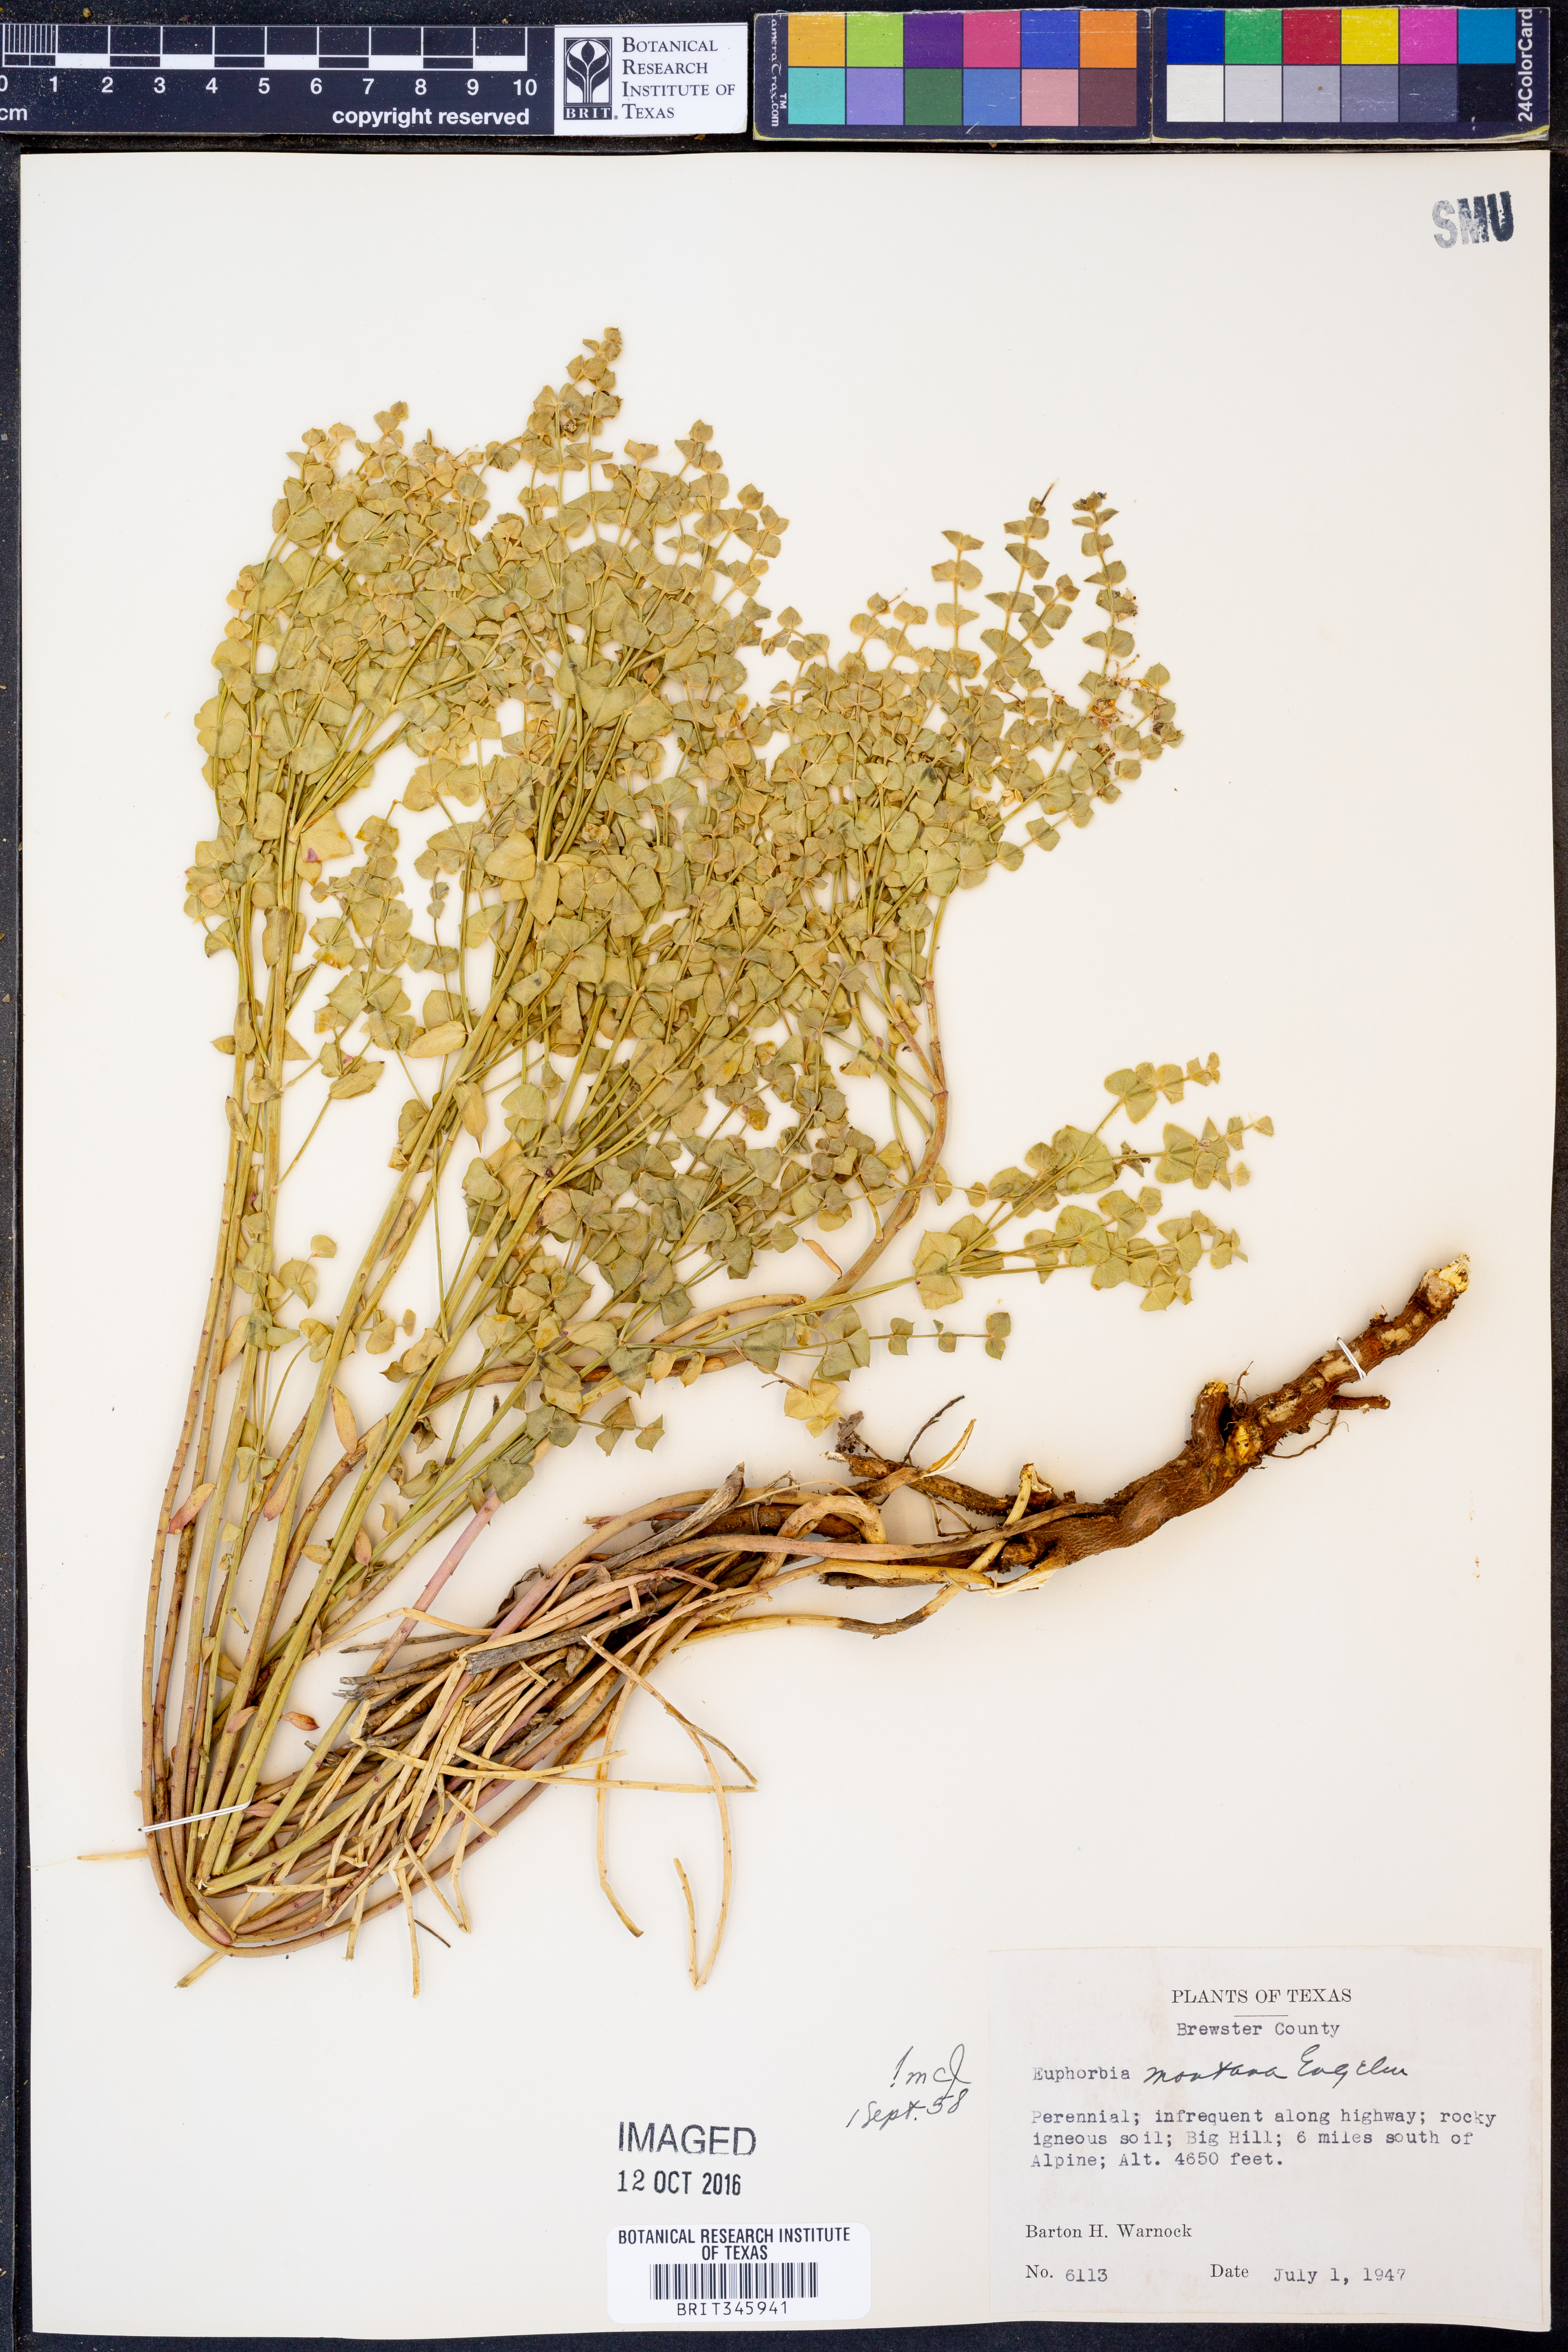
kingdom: Plantae
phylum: Tracheophyta
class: Magnoliopsida
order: Malpighiales
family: Euphorbiaceae
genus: Euphorbia
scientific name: Euphorbia brachycera
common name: Shorthorn spurge
